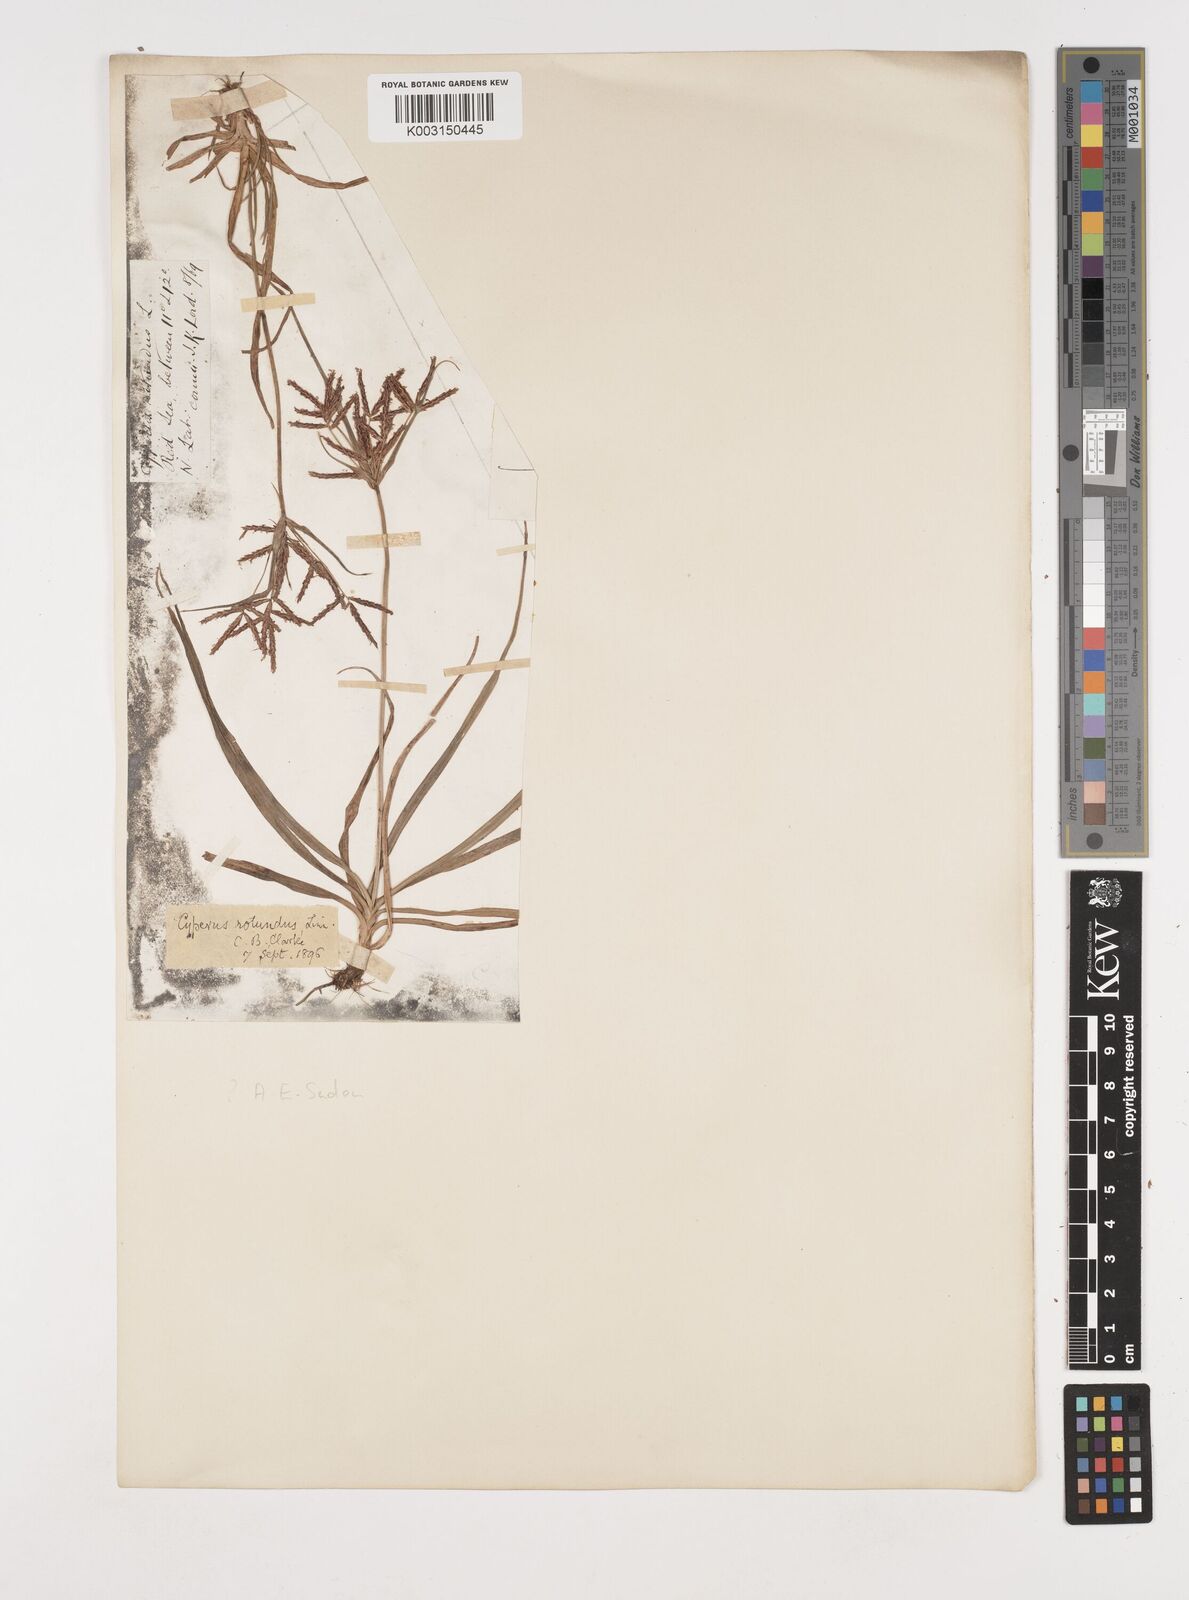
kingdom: Plantae
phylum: Tracheophyta
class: Liliopsida
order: Poales
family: Cyperaceae
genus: Cyperus
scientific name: Cyperus rotundus
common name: Nutgrass
